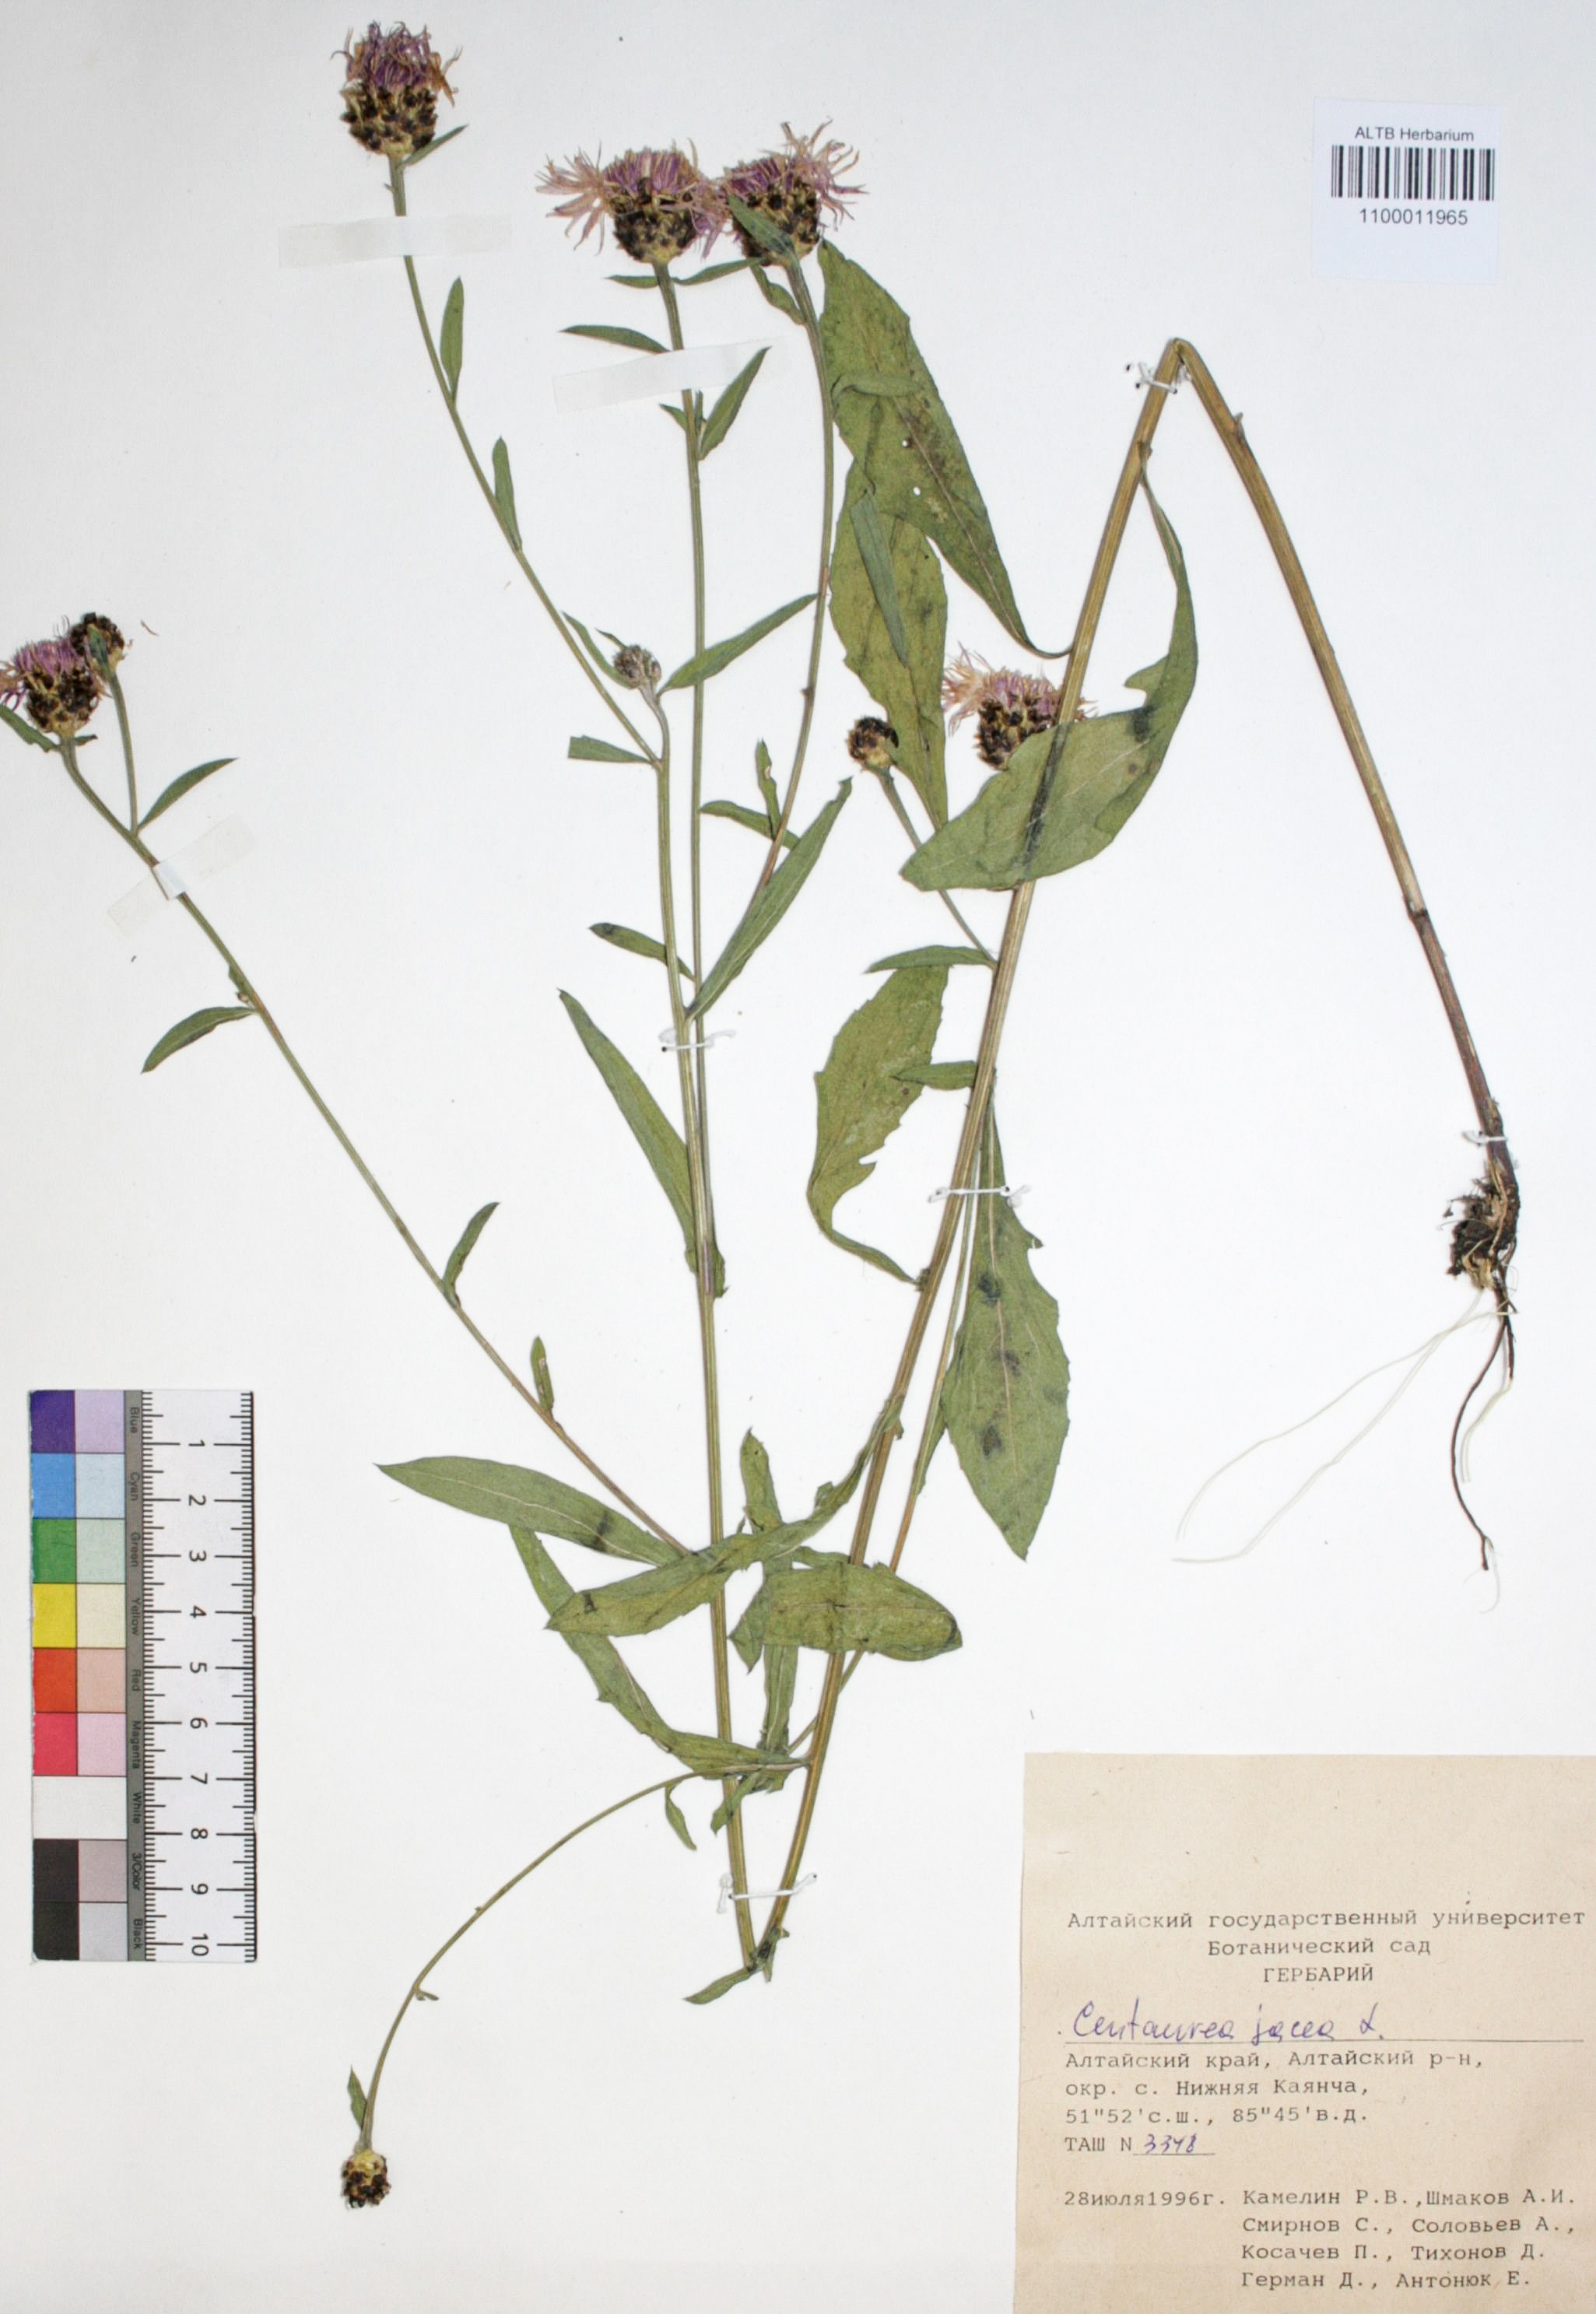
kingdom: Plantae
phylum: Tracheophyta
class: Magnoliopsida
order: Asterales
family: Asteraceae
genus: Centaurea
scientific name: Centaurea jacea
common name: Brown knapweed
